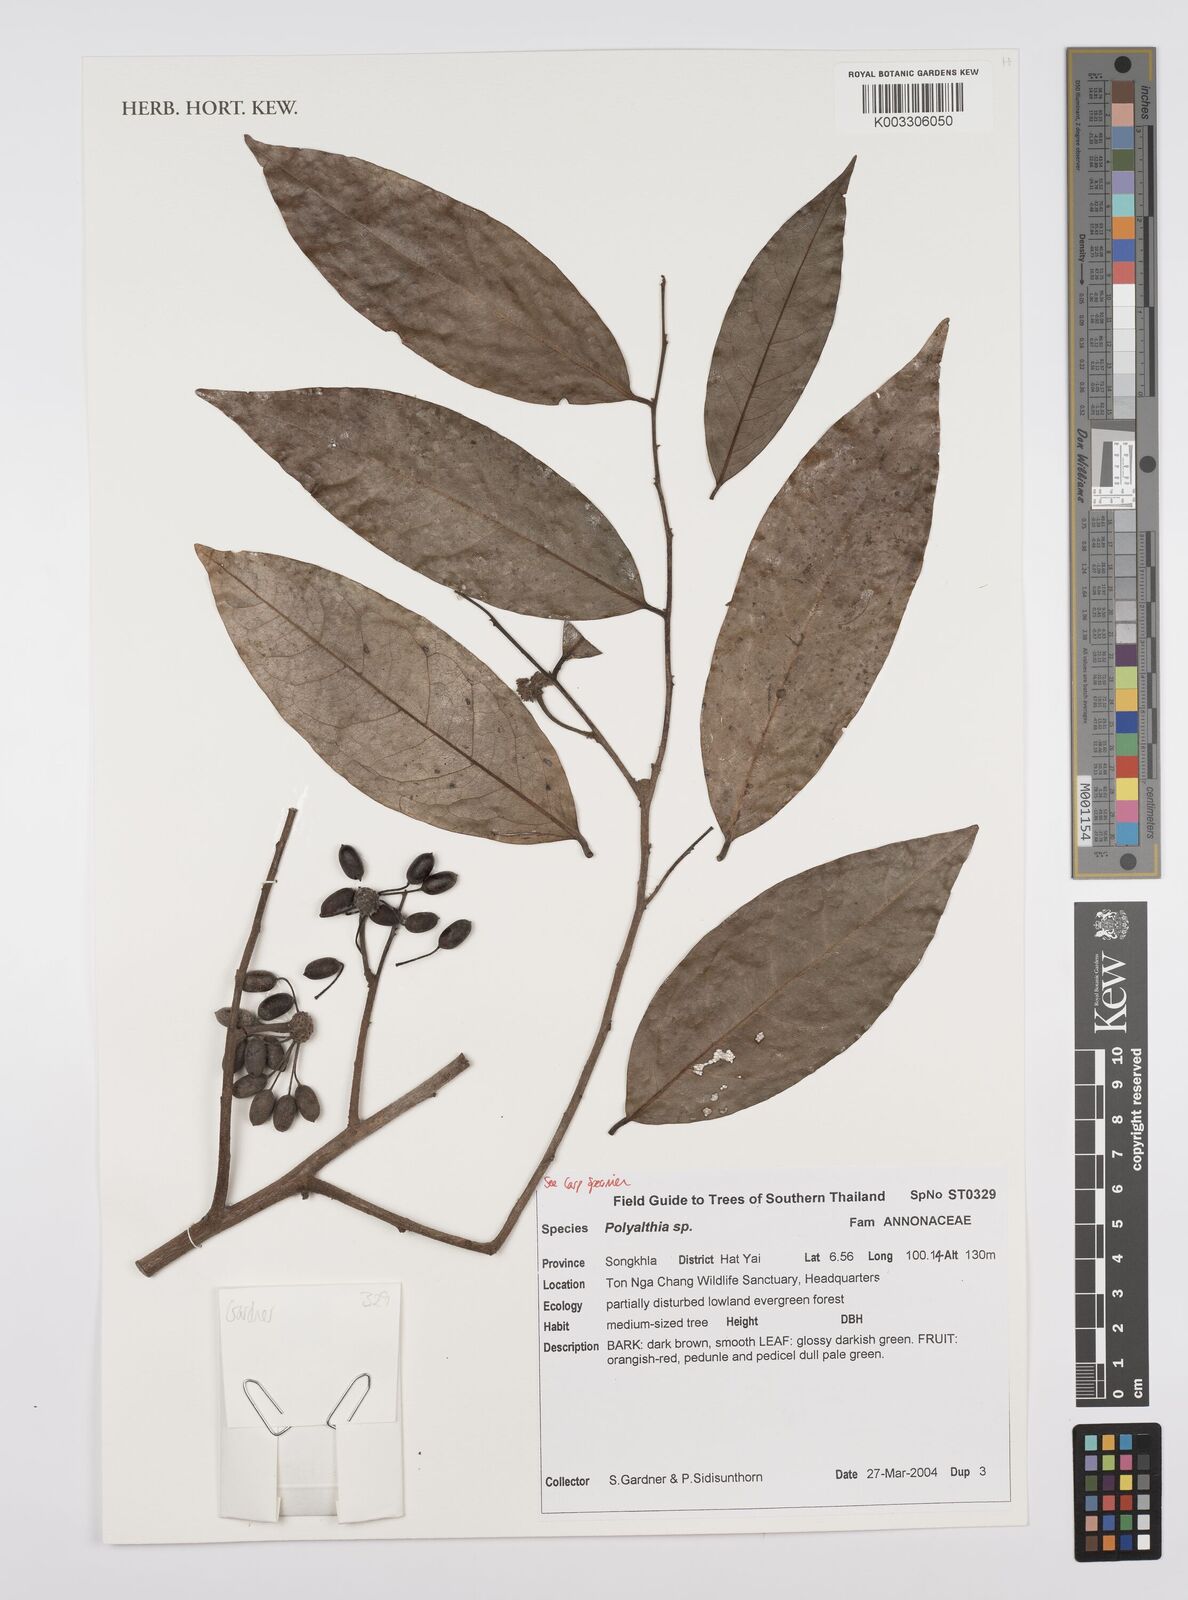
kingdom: Plantae
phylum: Tracheophyta
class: Magnoliopsida
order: Magnoliales
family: Annonaceae
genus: Huberantha
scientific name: Huberantha
